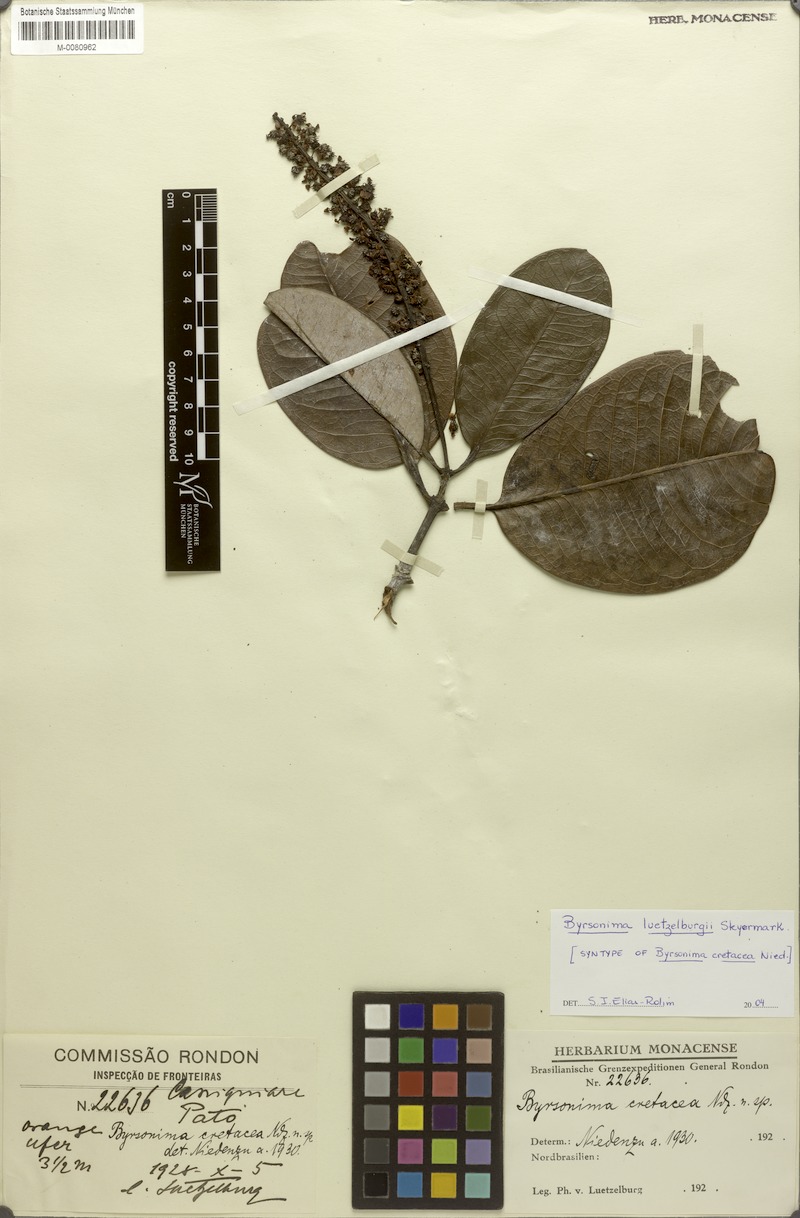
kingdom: Plantae
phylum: Tracheophyta
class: Magnoliopsida
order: Malpighiales
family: Malpighiaceae
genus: Byrsonima
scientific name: Byrsonima luetzelburgii
